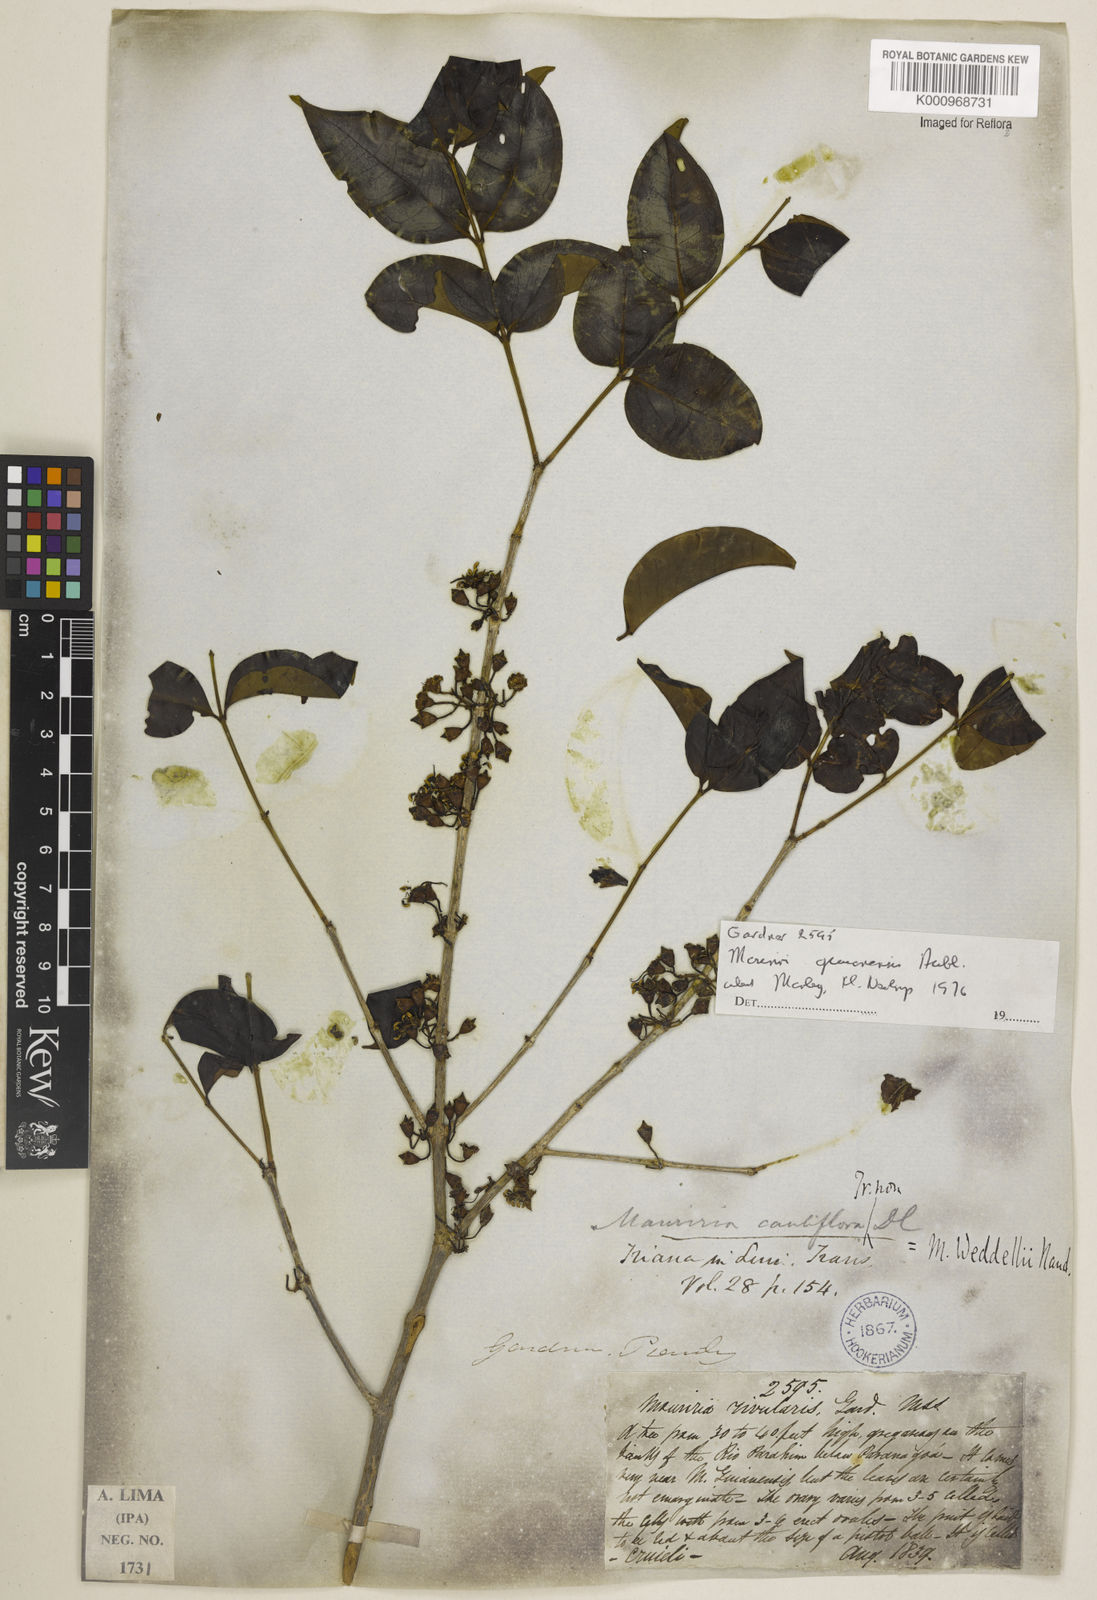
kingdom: Plantae
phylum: Tracheophyta
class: Magnoliopsida
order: Myrtales
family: Melastomataceae
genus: Mouriri
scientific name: Mouriri guianensis
